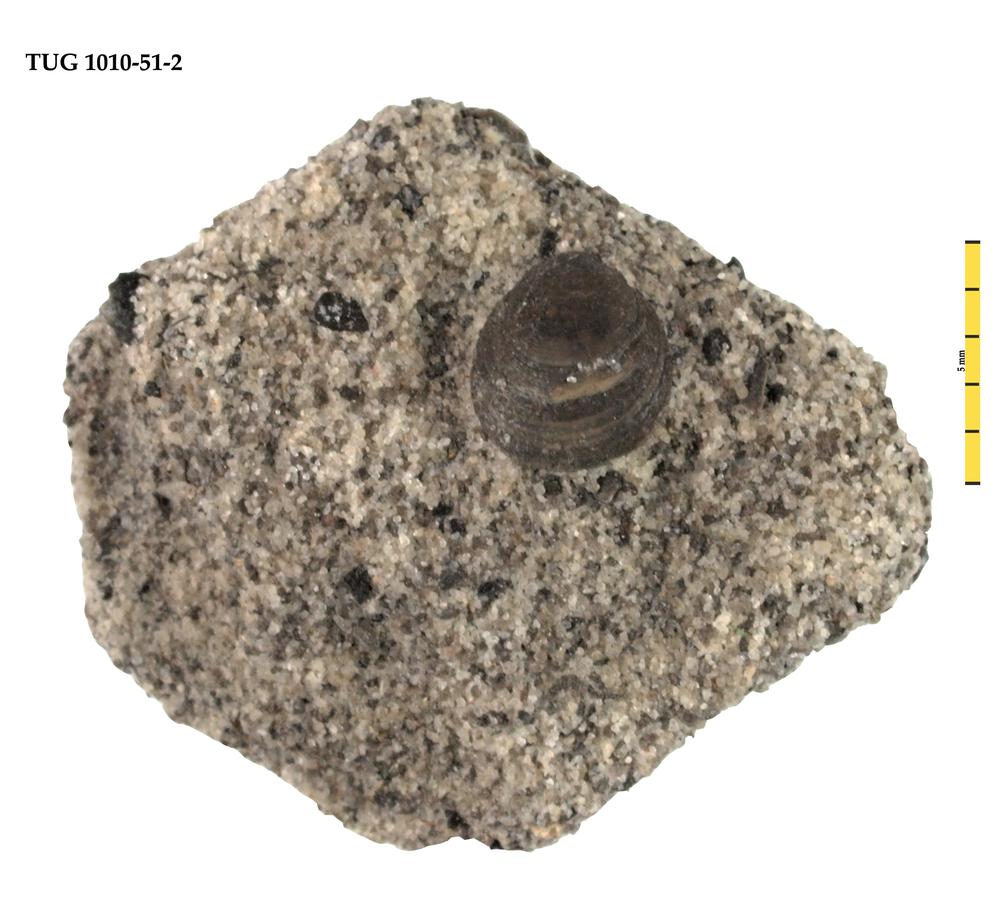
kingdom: Animalia
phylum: Brachiopoda
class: Lingulata
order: Lingulida
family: Obolidae
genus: Schmidtites
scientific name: Schmidtites Schmidtia celata
